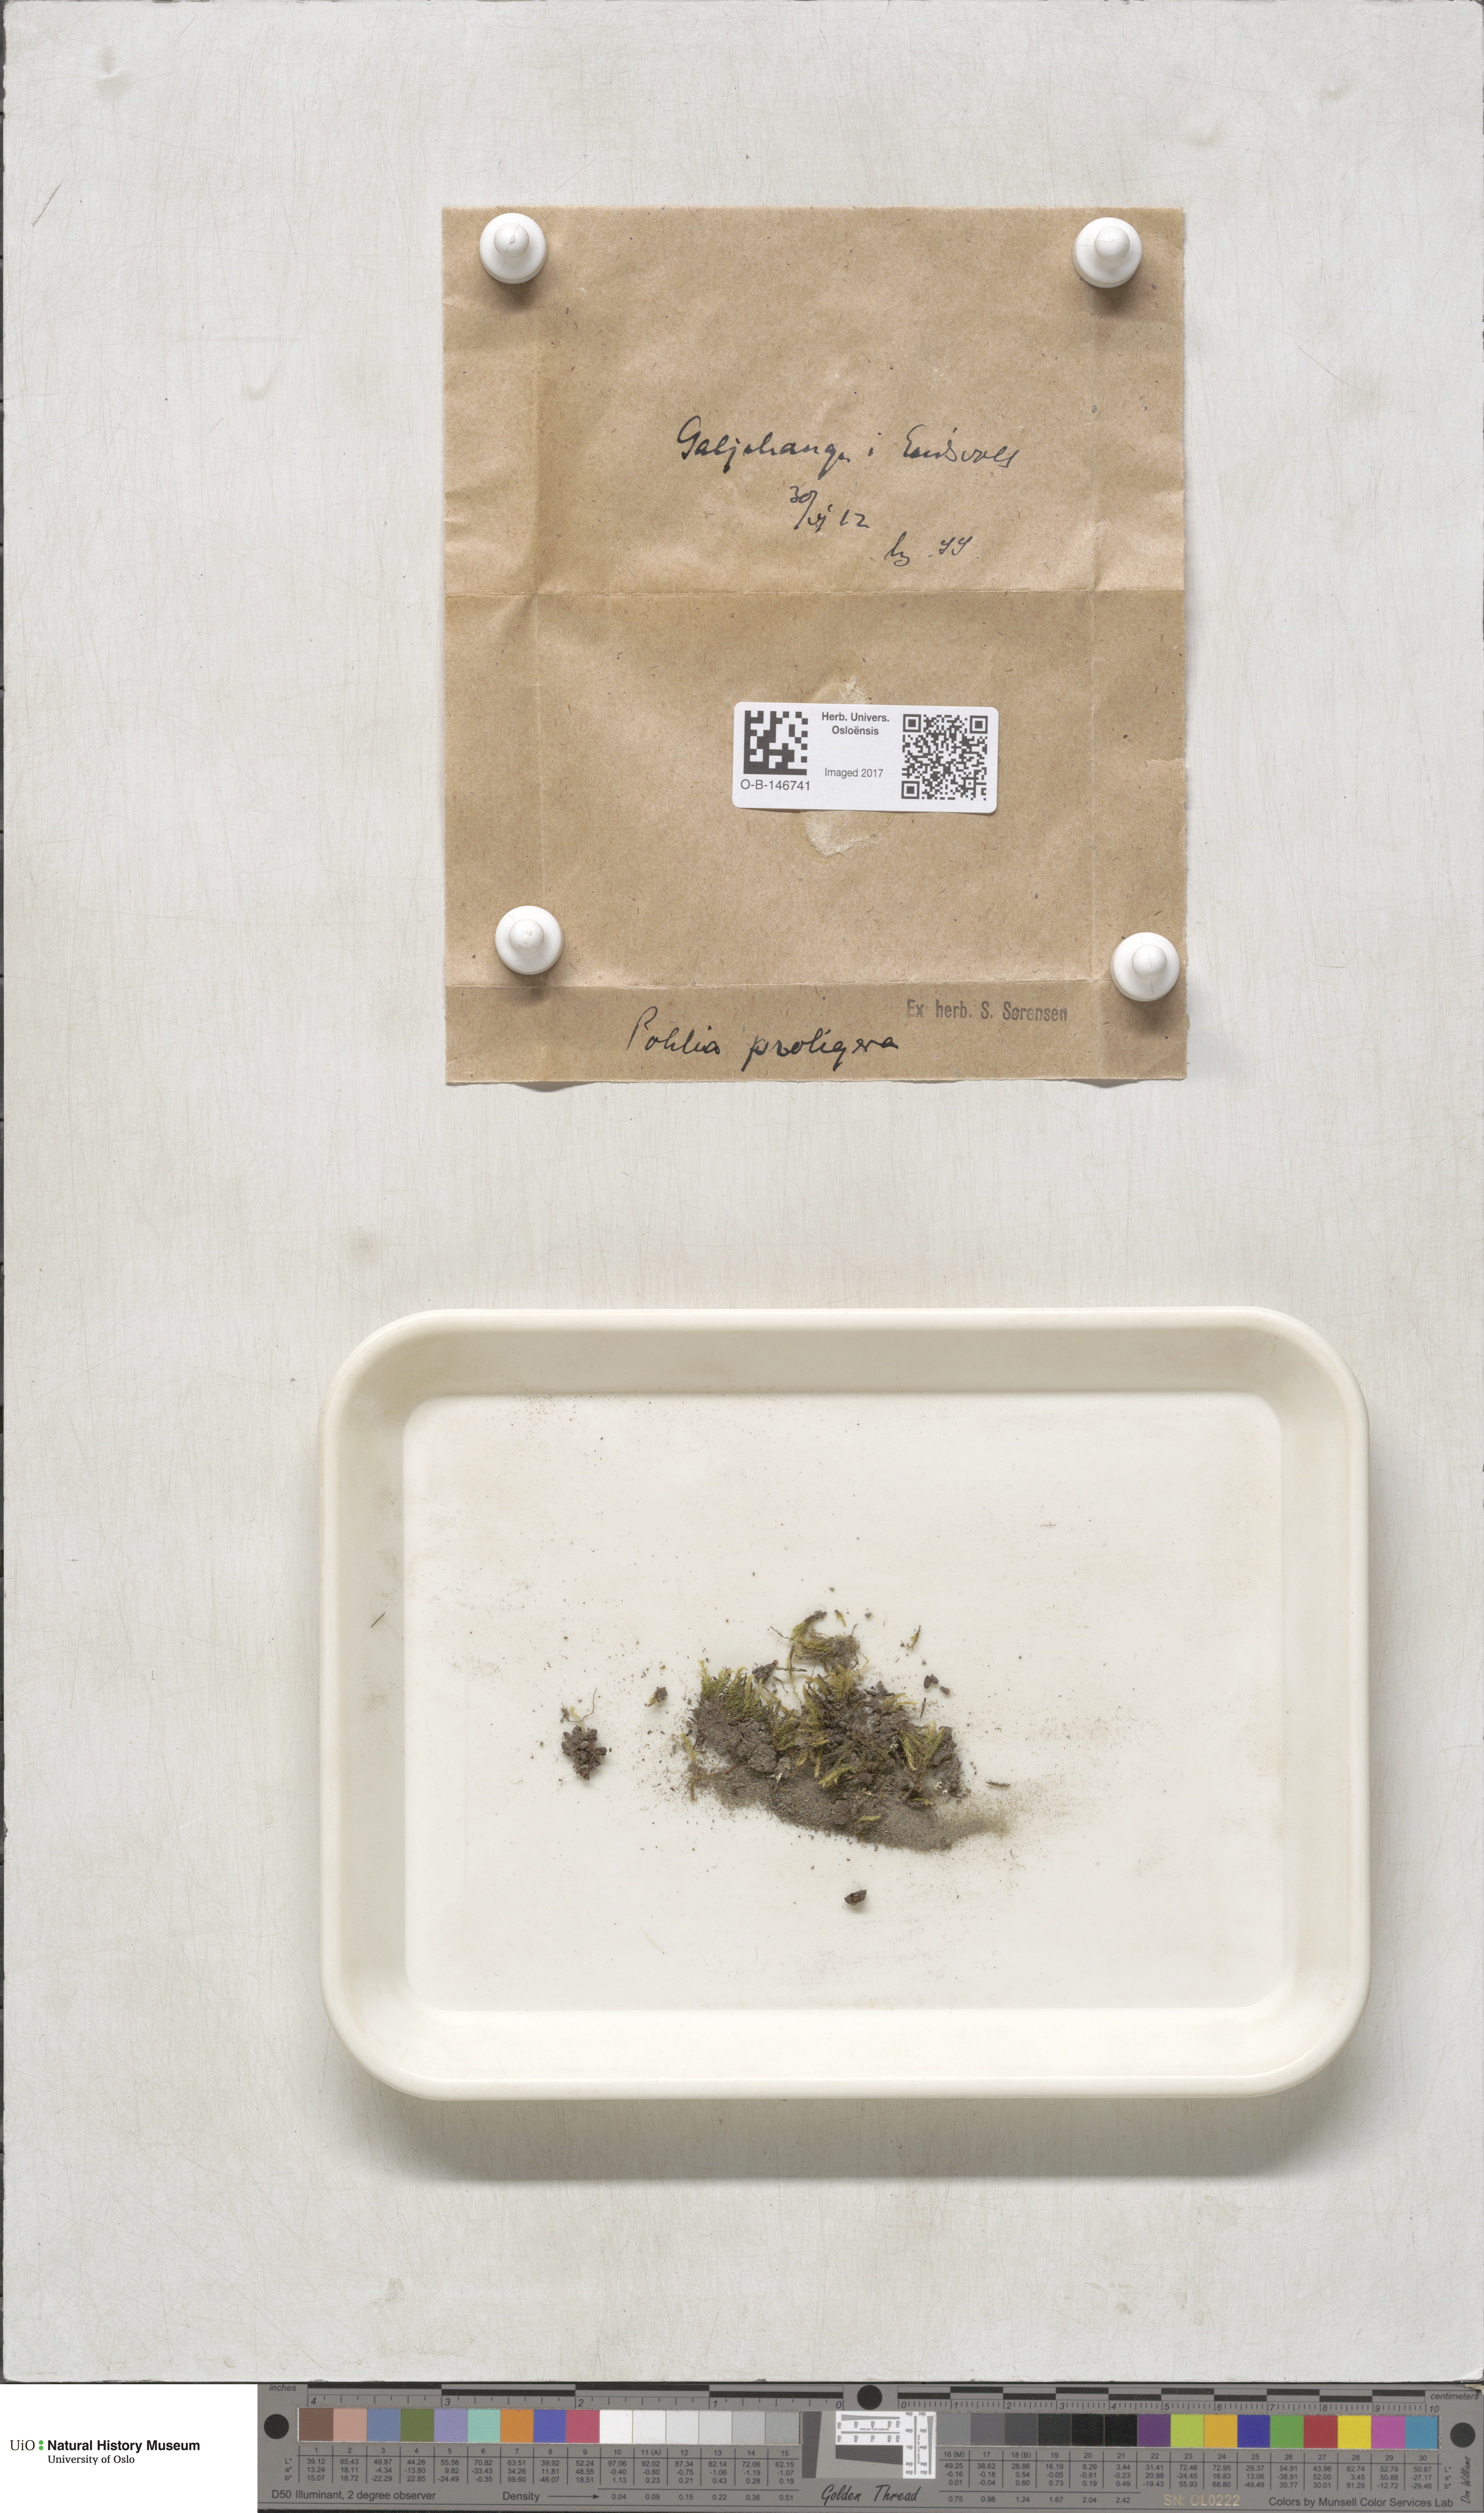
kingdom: Plantae
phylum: Bryophyta
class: Bryopsida
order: Bryales
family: Mniaceae
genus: Pohlia
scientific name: Pohlia proligera
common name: Cottony nodding moss
